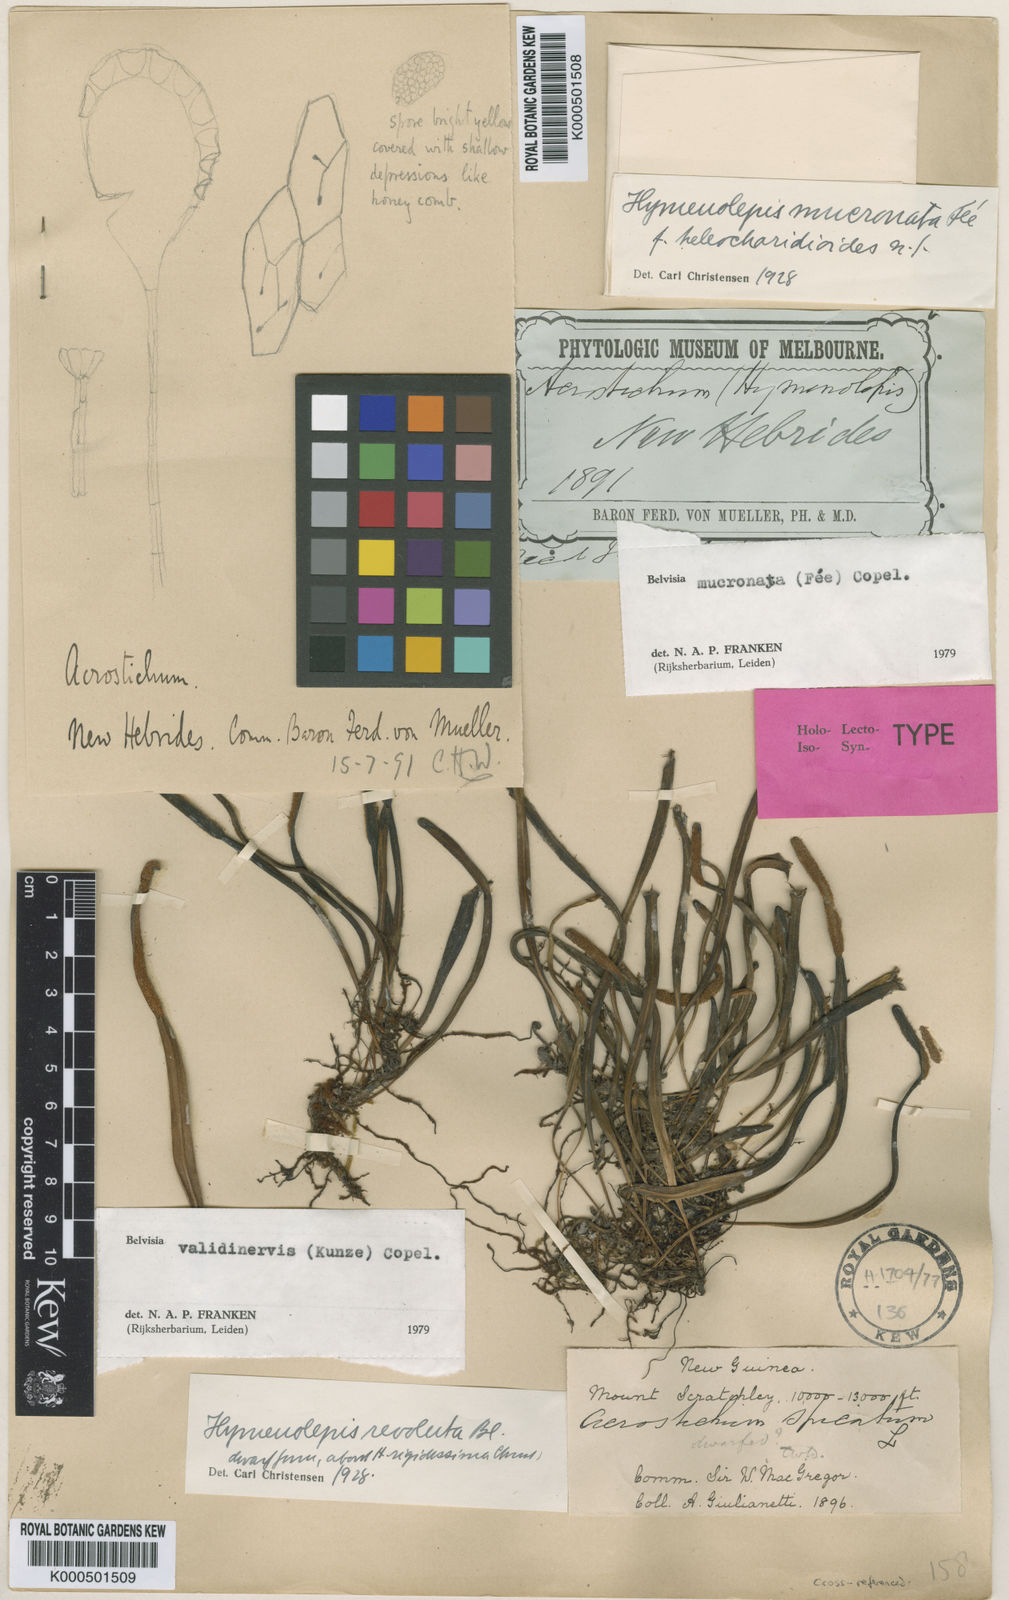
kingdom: Plantae
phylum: Tracheophyta
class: Polypodiopsida
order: Polypodiales
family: Polypodiaceae
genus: Lepisorus
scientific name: Lepisorus mucronatus
